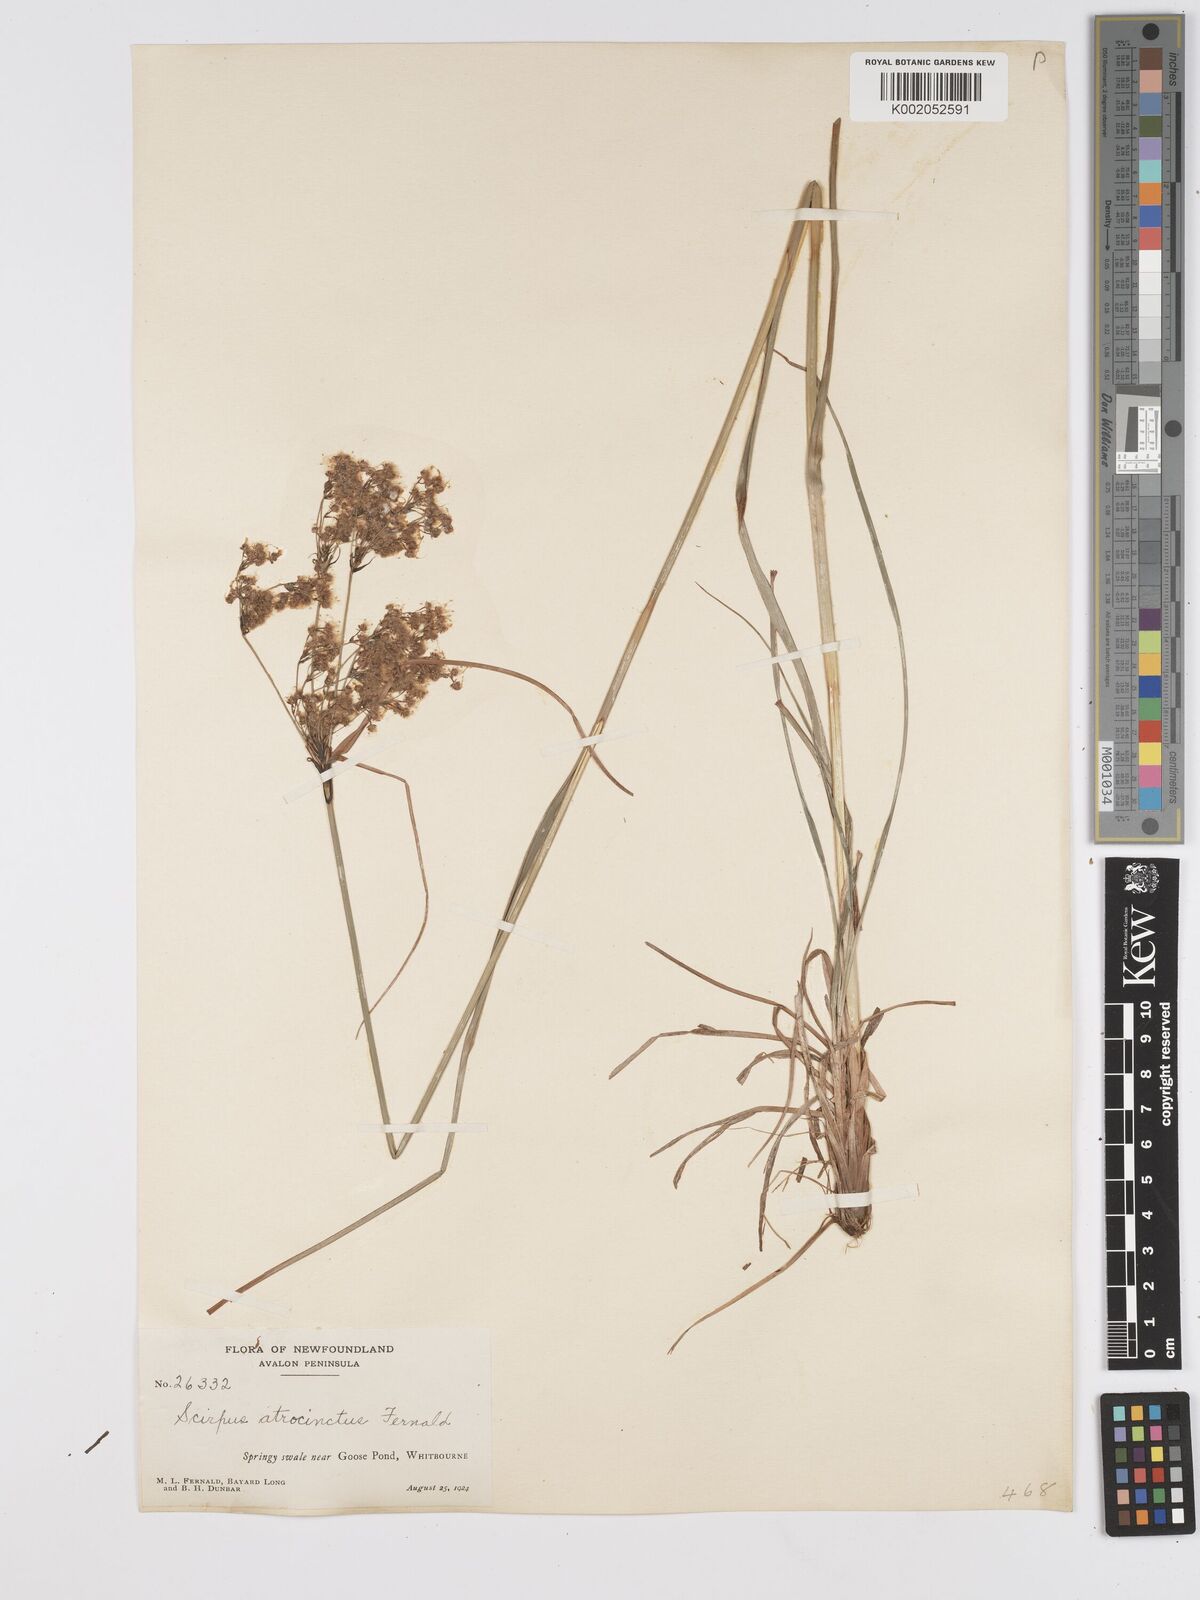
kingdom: Plantae
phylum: Tracheophyta
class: Liliopsida
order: Poales
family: Cyperaceae
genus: Scirpus
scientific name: Scirpus atrocinctus
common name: Black-girdled bulrush
